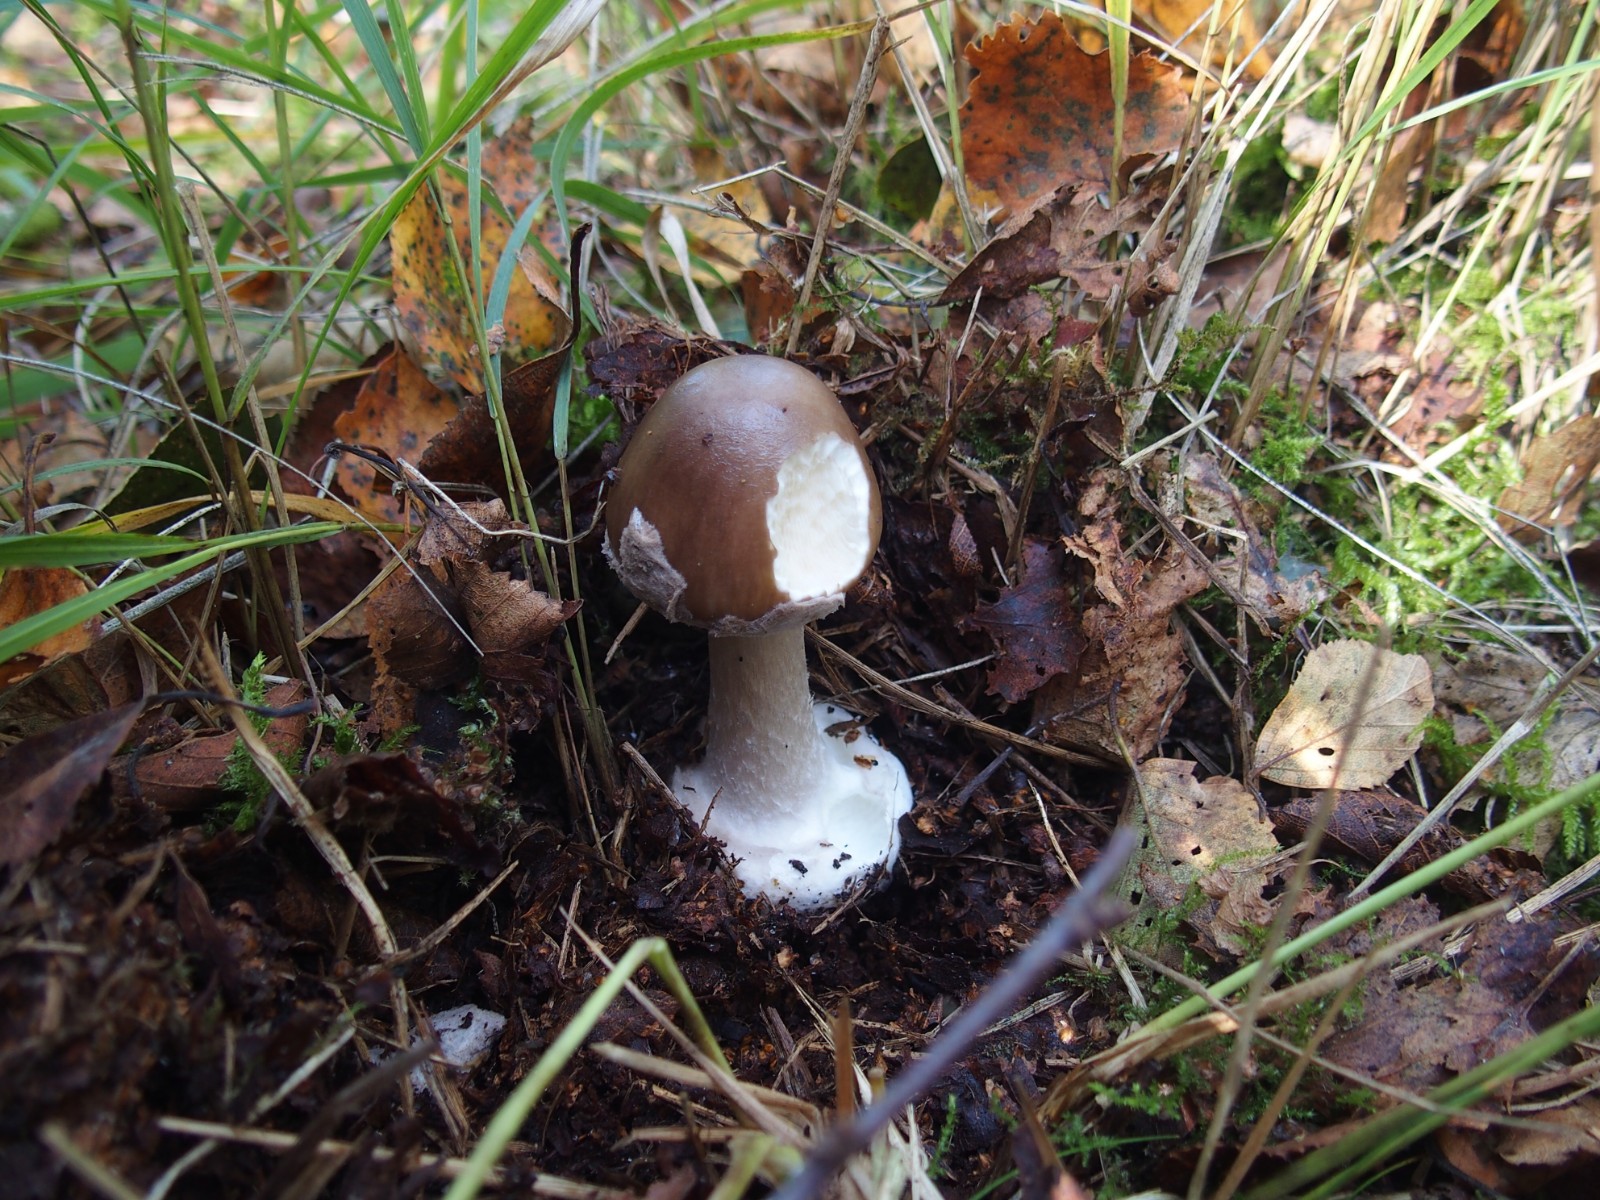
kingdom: Fungi
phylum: Basidiomycota
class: Agaricomycetes
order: Agaricales
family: Amanitaceae
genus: Amanita
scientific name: Amanita porphyria
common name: porfyr-fluesvamp
